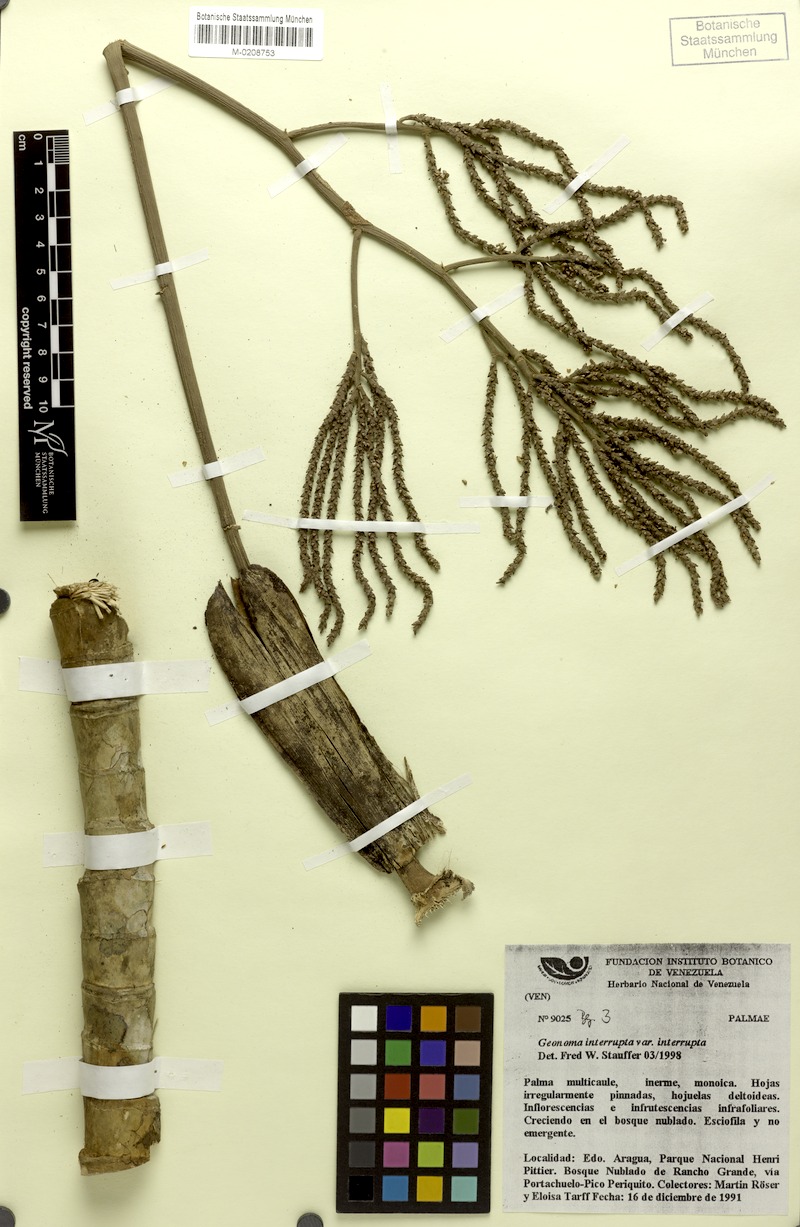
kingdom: Plantae
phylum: Tracheophyta
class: Liliopsida
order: Arecales
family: Arecaceae
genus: Geonoma
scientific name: Geonoma interrupta
